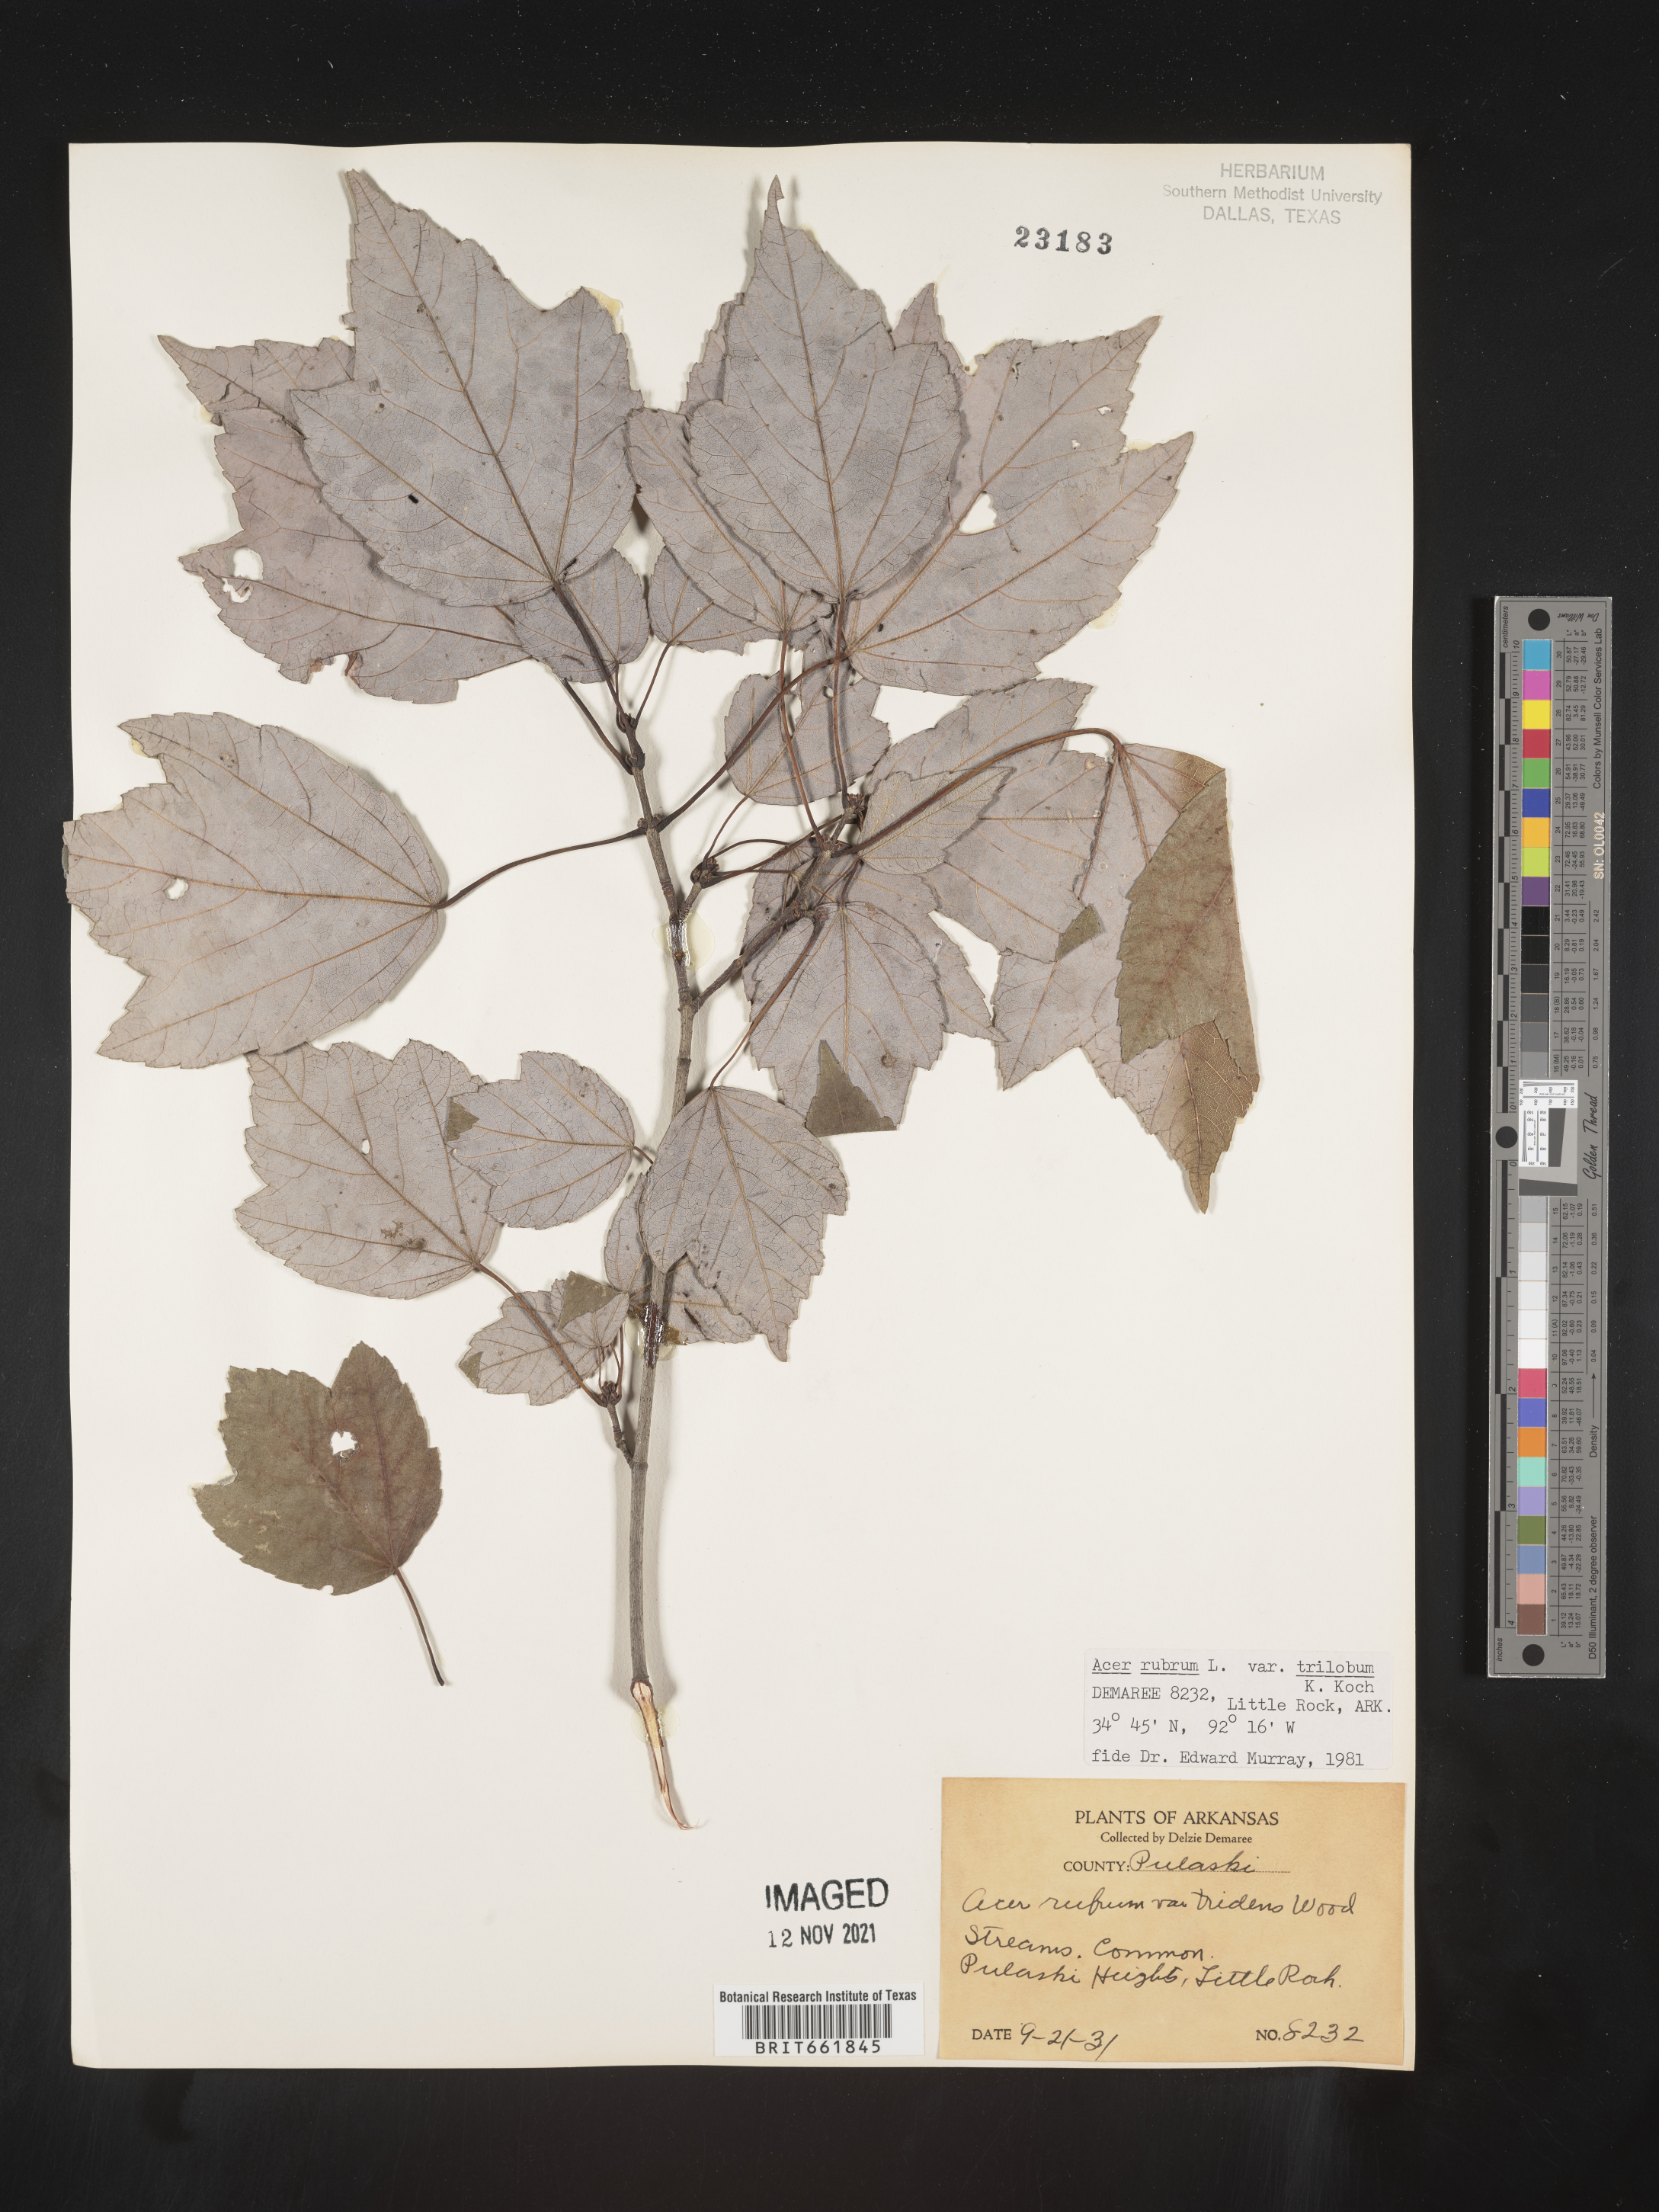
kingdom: Plantae
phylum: Tracheophyta
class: Magnoliopsida
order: Sapindales
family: Sapindaceae
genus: Acer
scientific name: Acer rubrum
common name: Red maple
